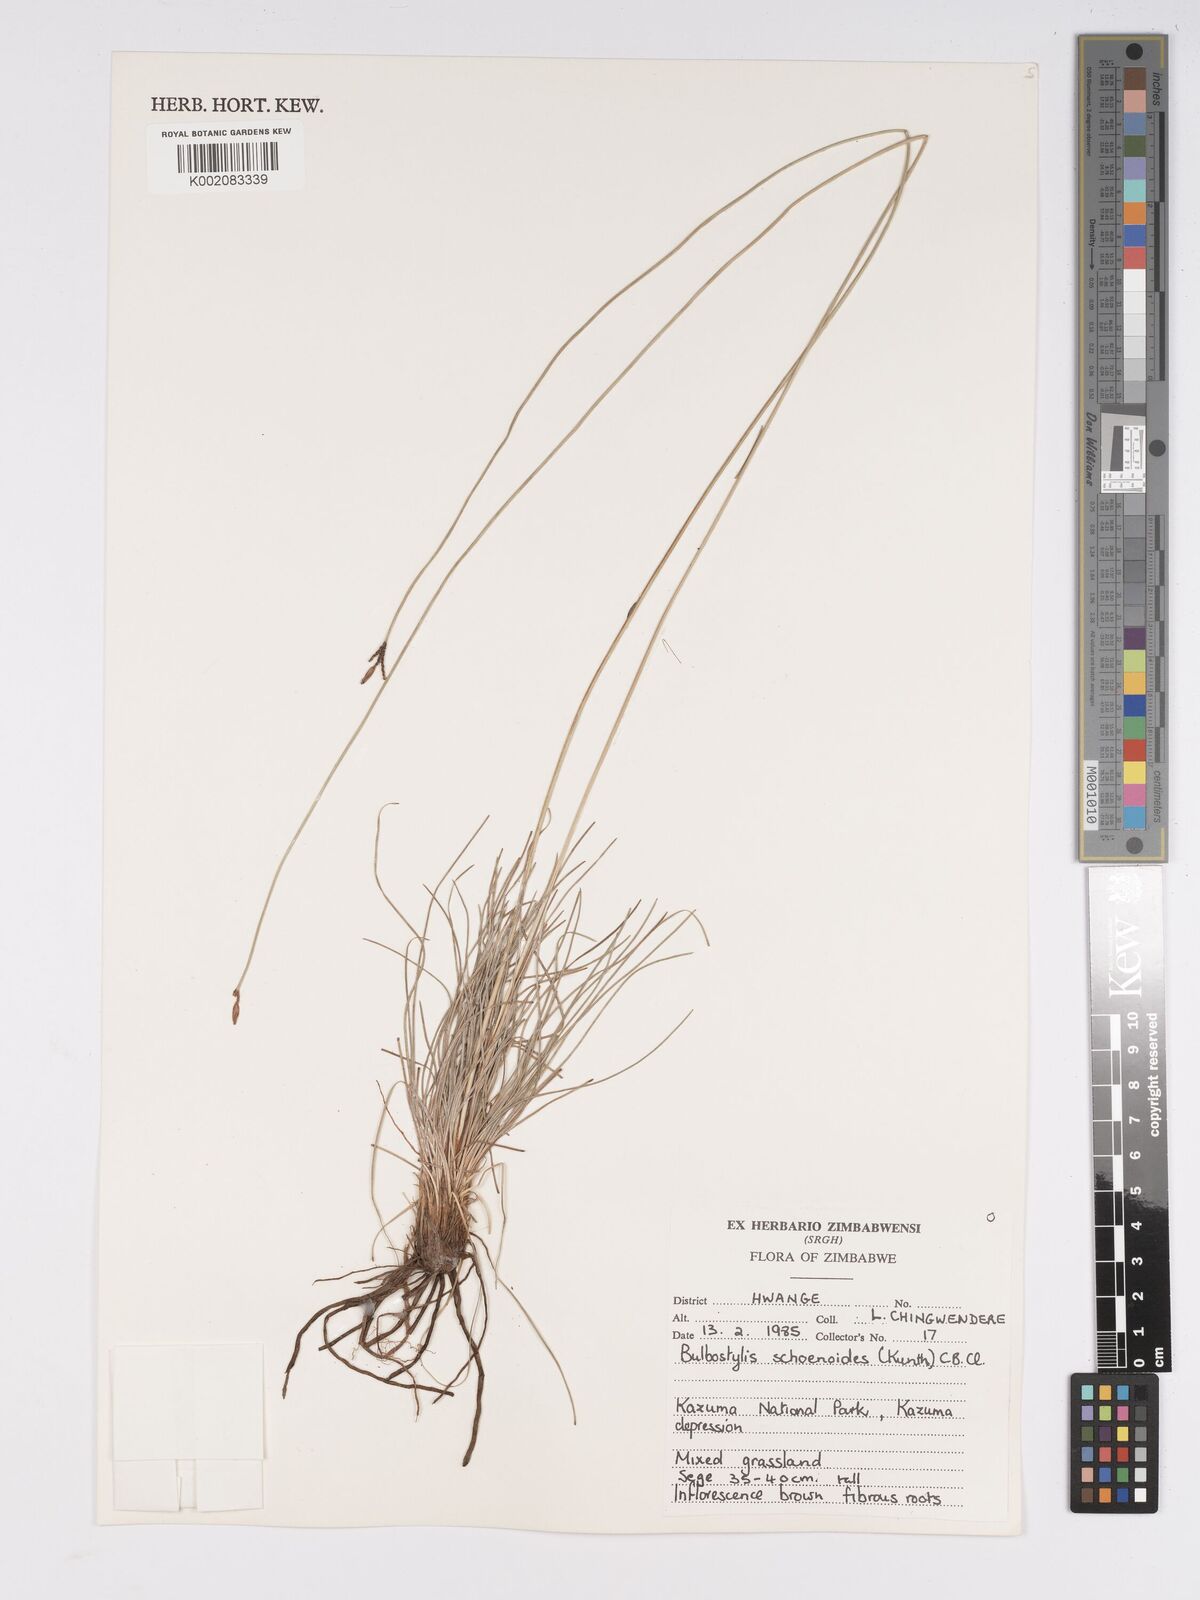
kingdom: Plantae
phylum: Tracheophyta
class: Liliopsida
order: Poales
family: Cyperaceae
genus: Bulbostylis
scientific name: Bulbostylis schoenoides
